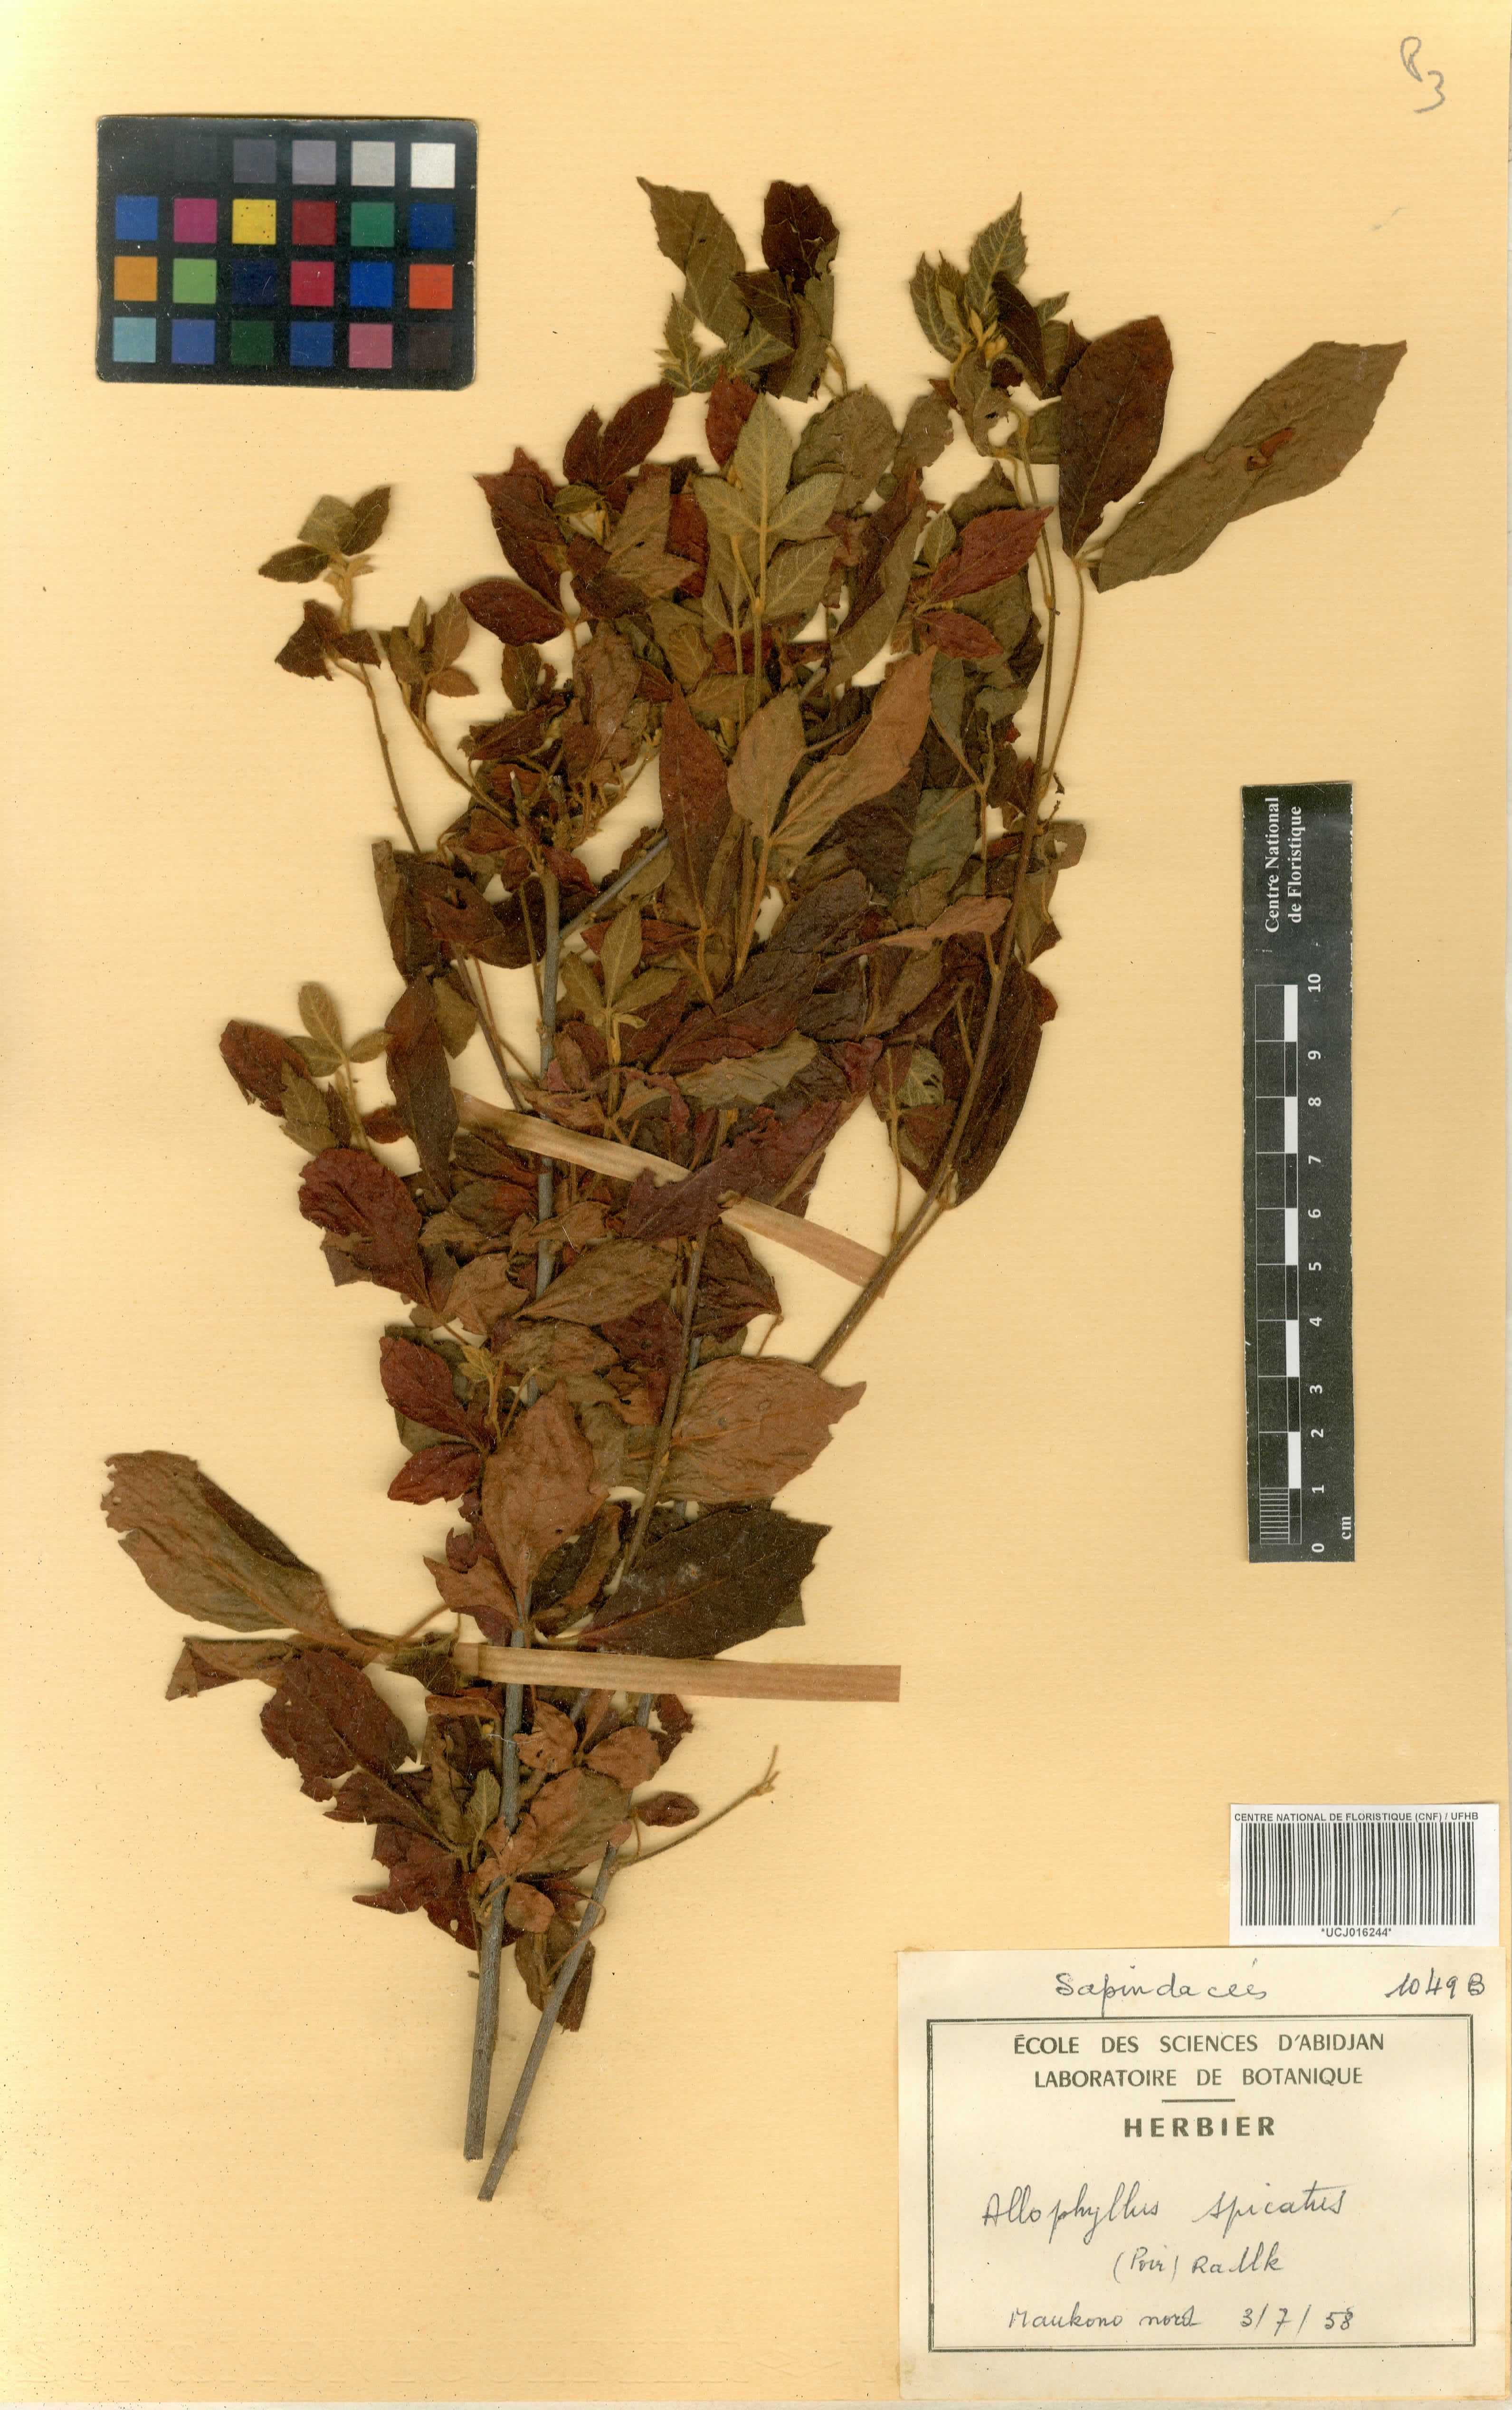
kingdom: Plantae
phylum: Tracheophyta
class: Magnoliopsida
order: Sapindales
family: Sapindaceae
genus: Allophylus
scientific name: Allophylus spicatus
